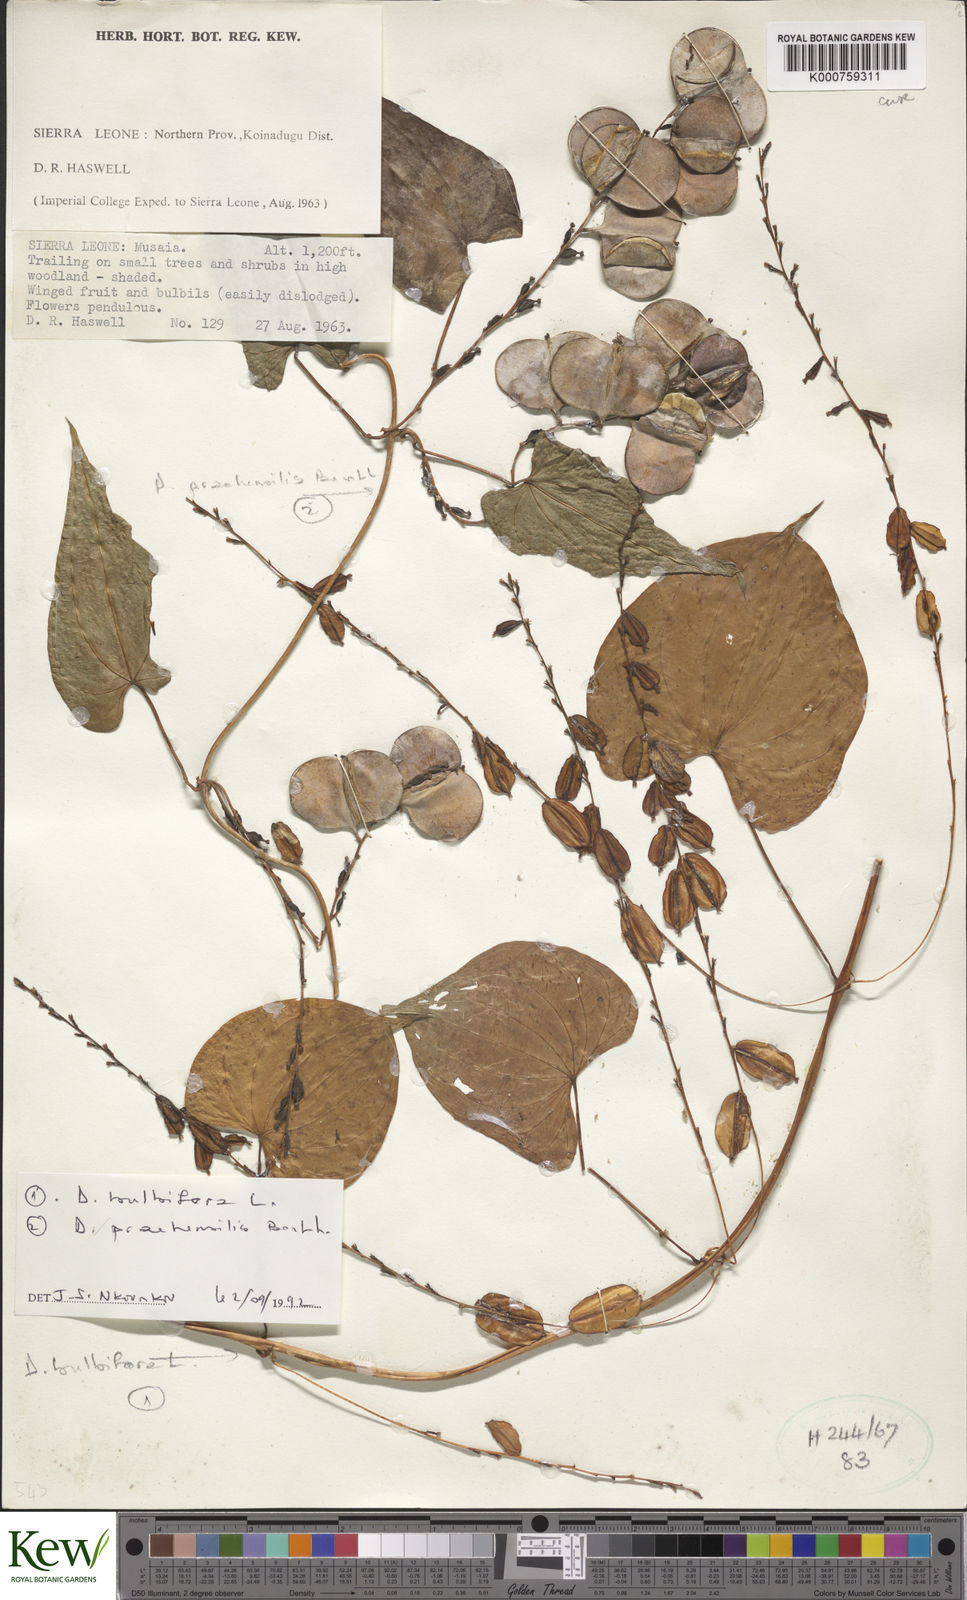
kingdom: Plantae
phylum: Tracheophyta
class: Liliopsida
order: Dioscoreales
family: Dioscoreaceae
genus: Dioscorea
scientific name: Dioscorea praehensilis
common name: Bush yam
